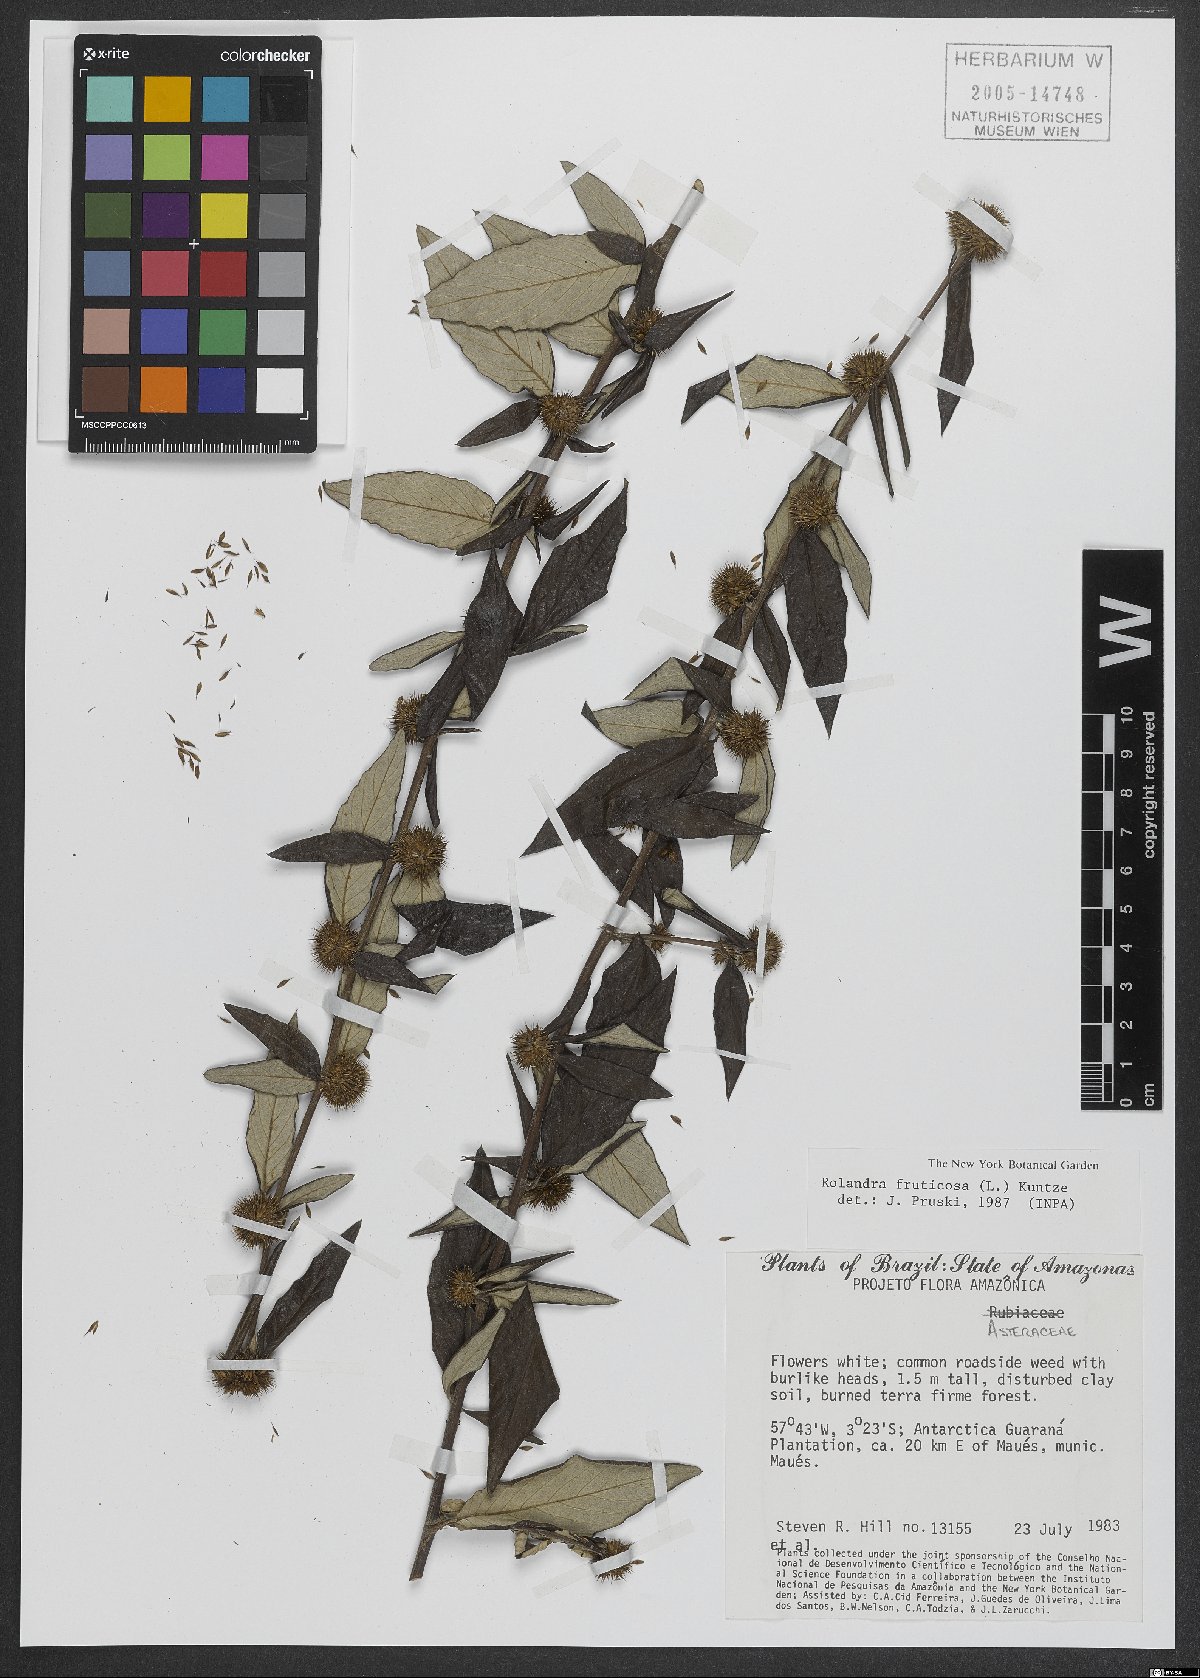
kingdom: Plantae
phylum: Tracheophyta
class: Magnoliopsida
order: Asterales
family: Asteraceae
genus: Rolandra
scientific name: Rolandra fruticosa
